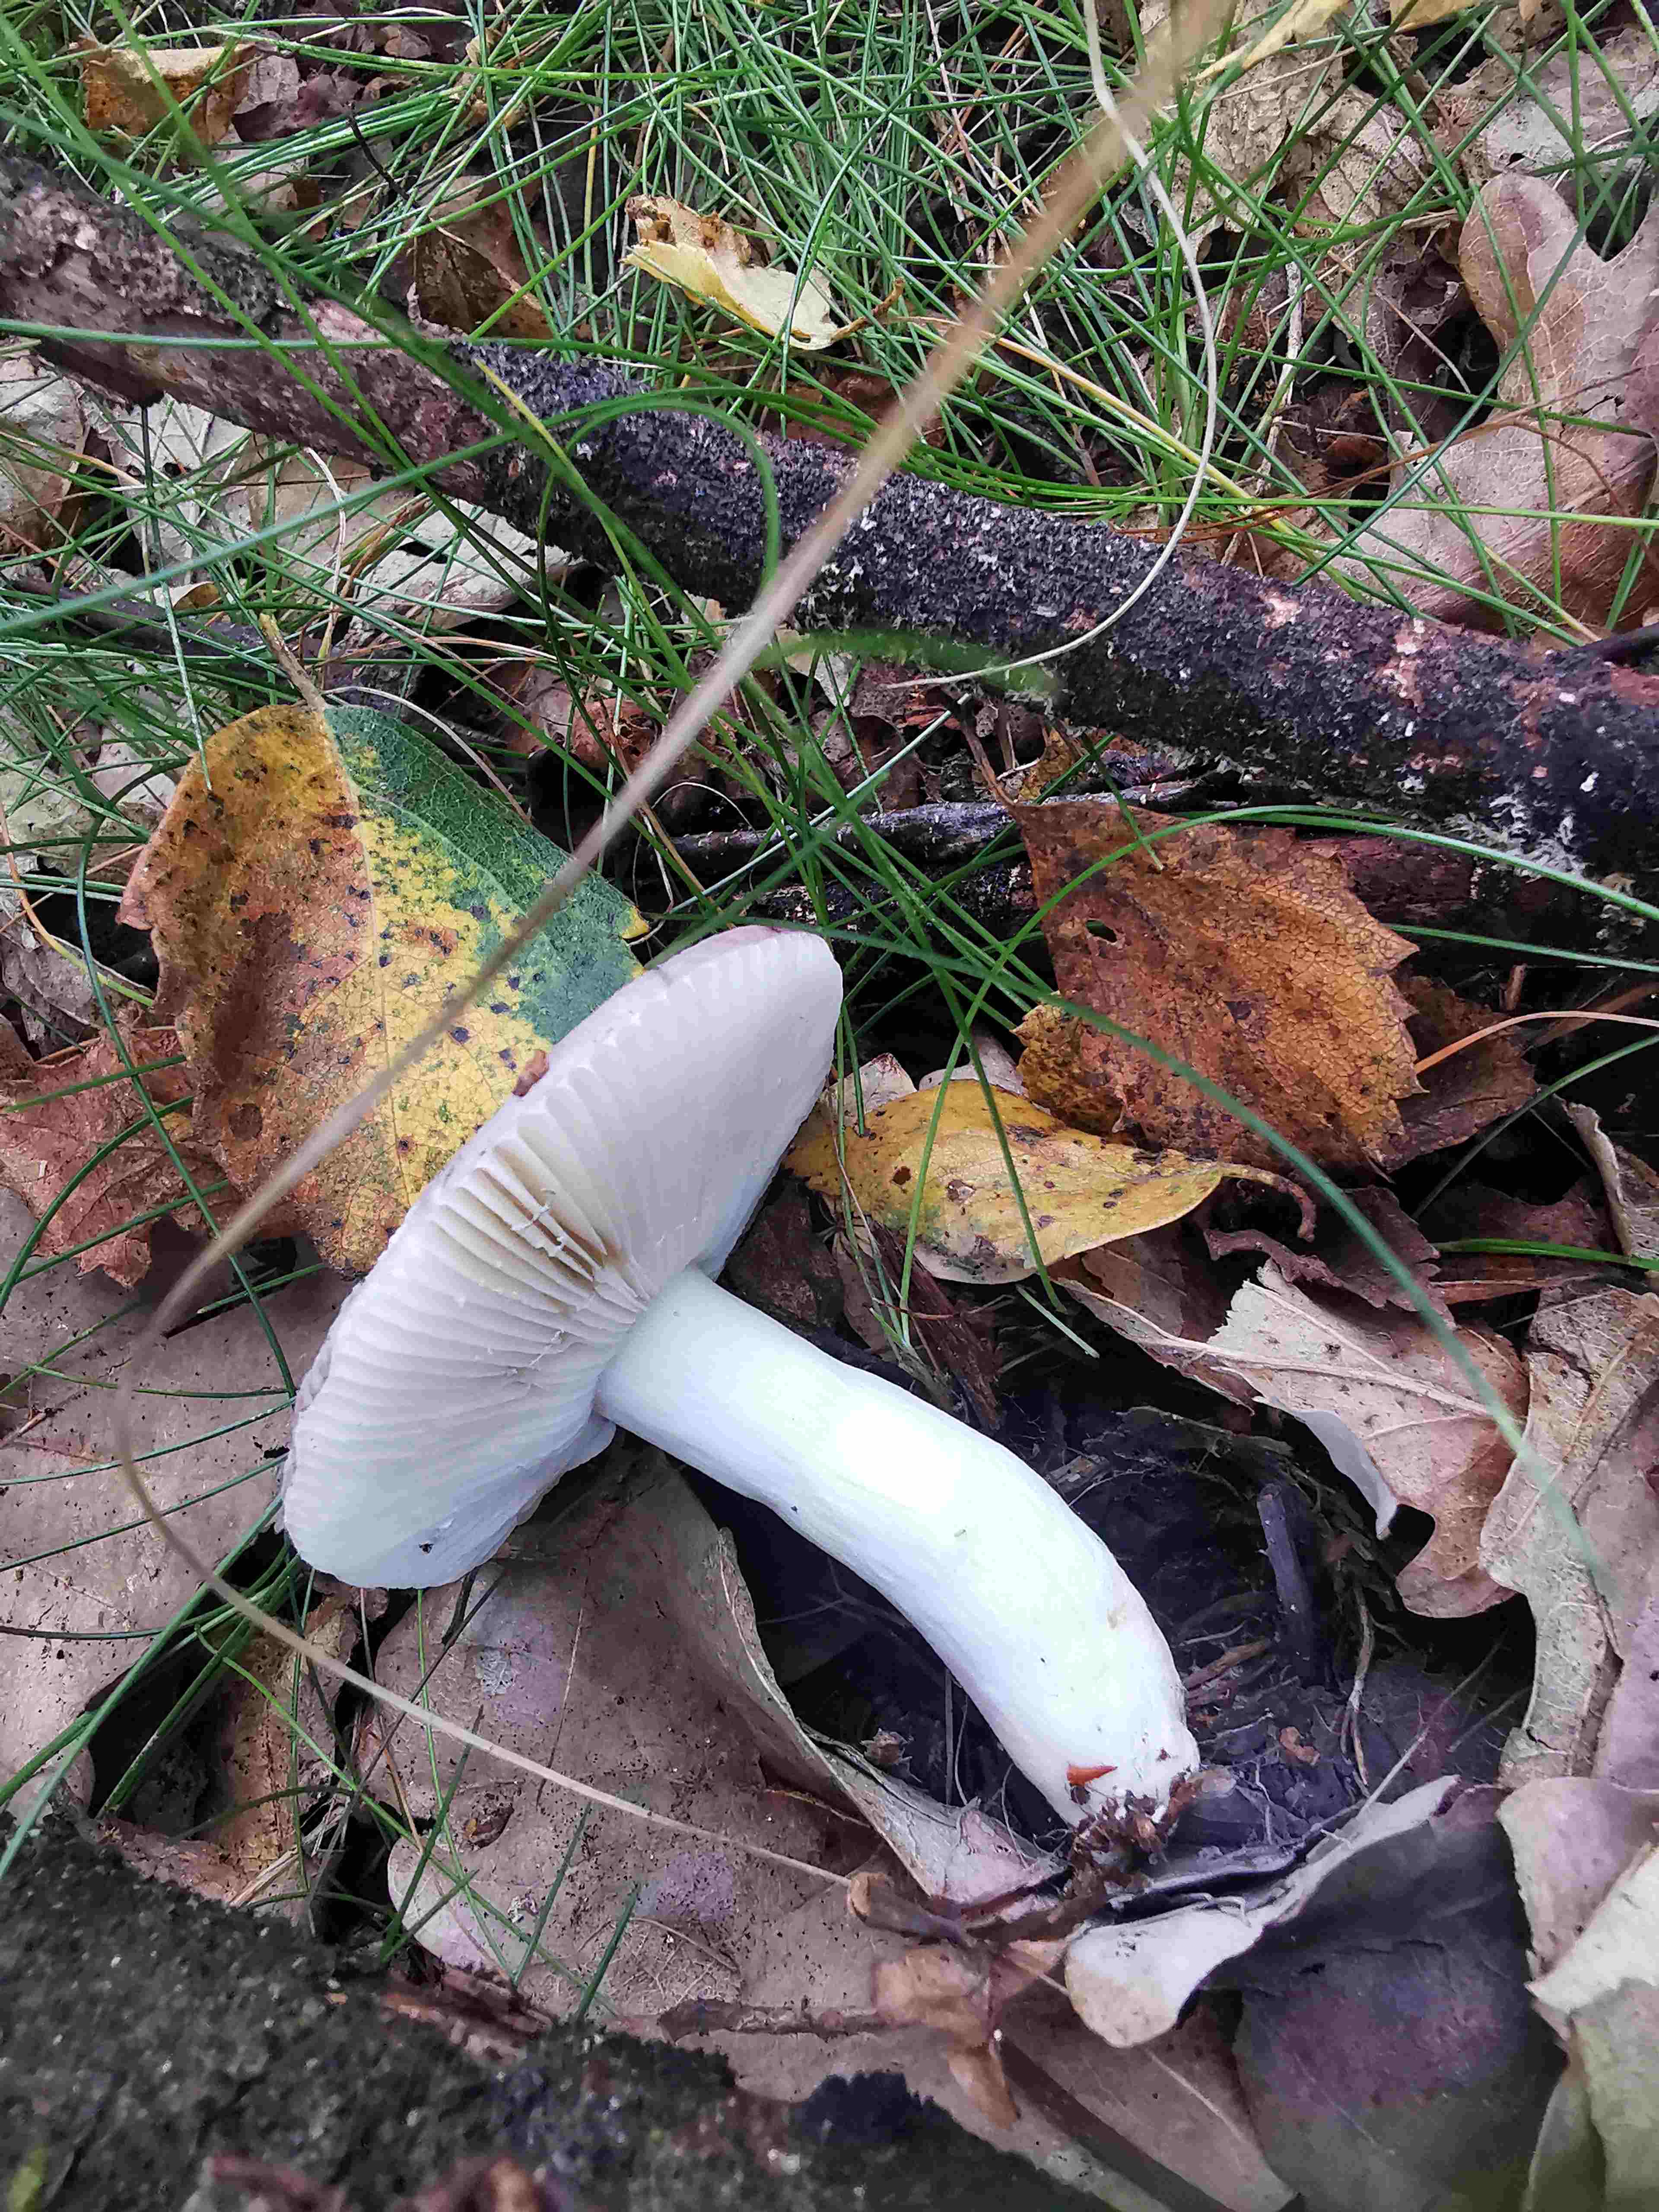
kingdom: Fungi
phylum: Basidiomycota
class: Agaricomycetes
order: Russulales
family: Russulaceae
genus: Russula
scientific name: Russula fragilis
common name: savbladet skørhat
